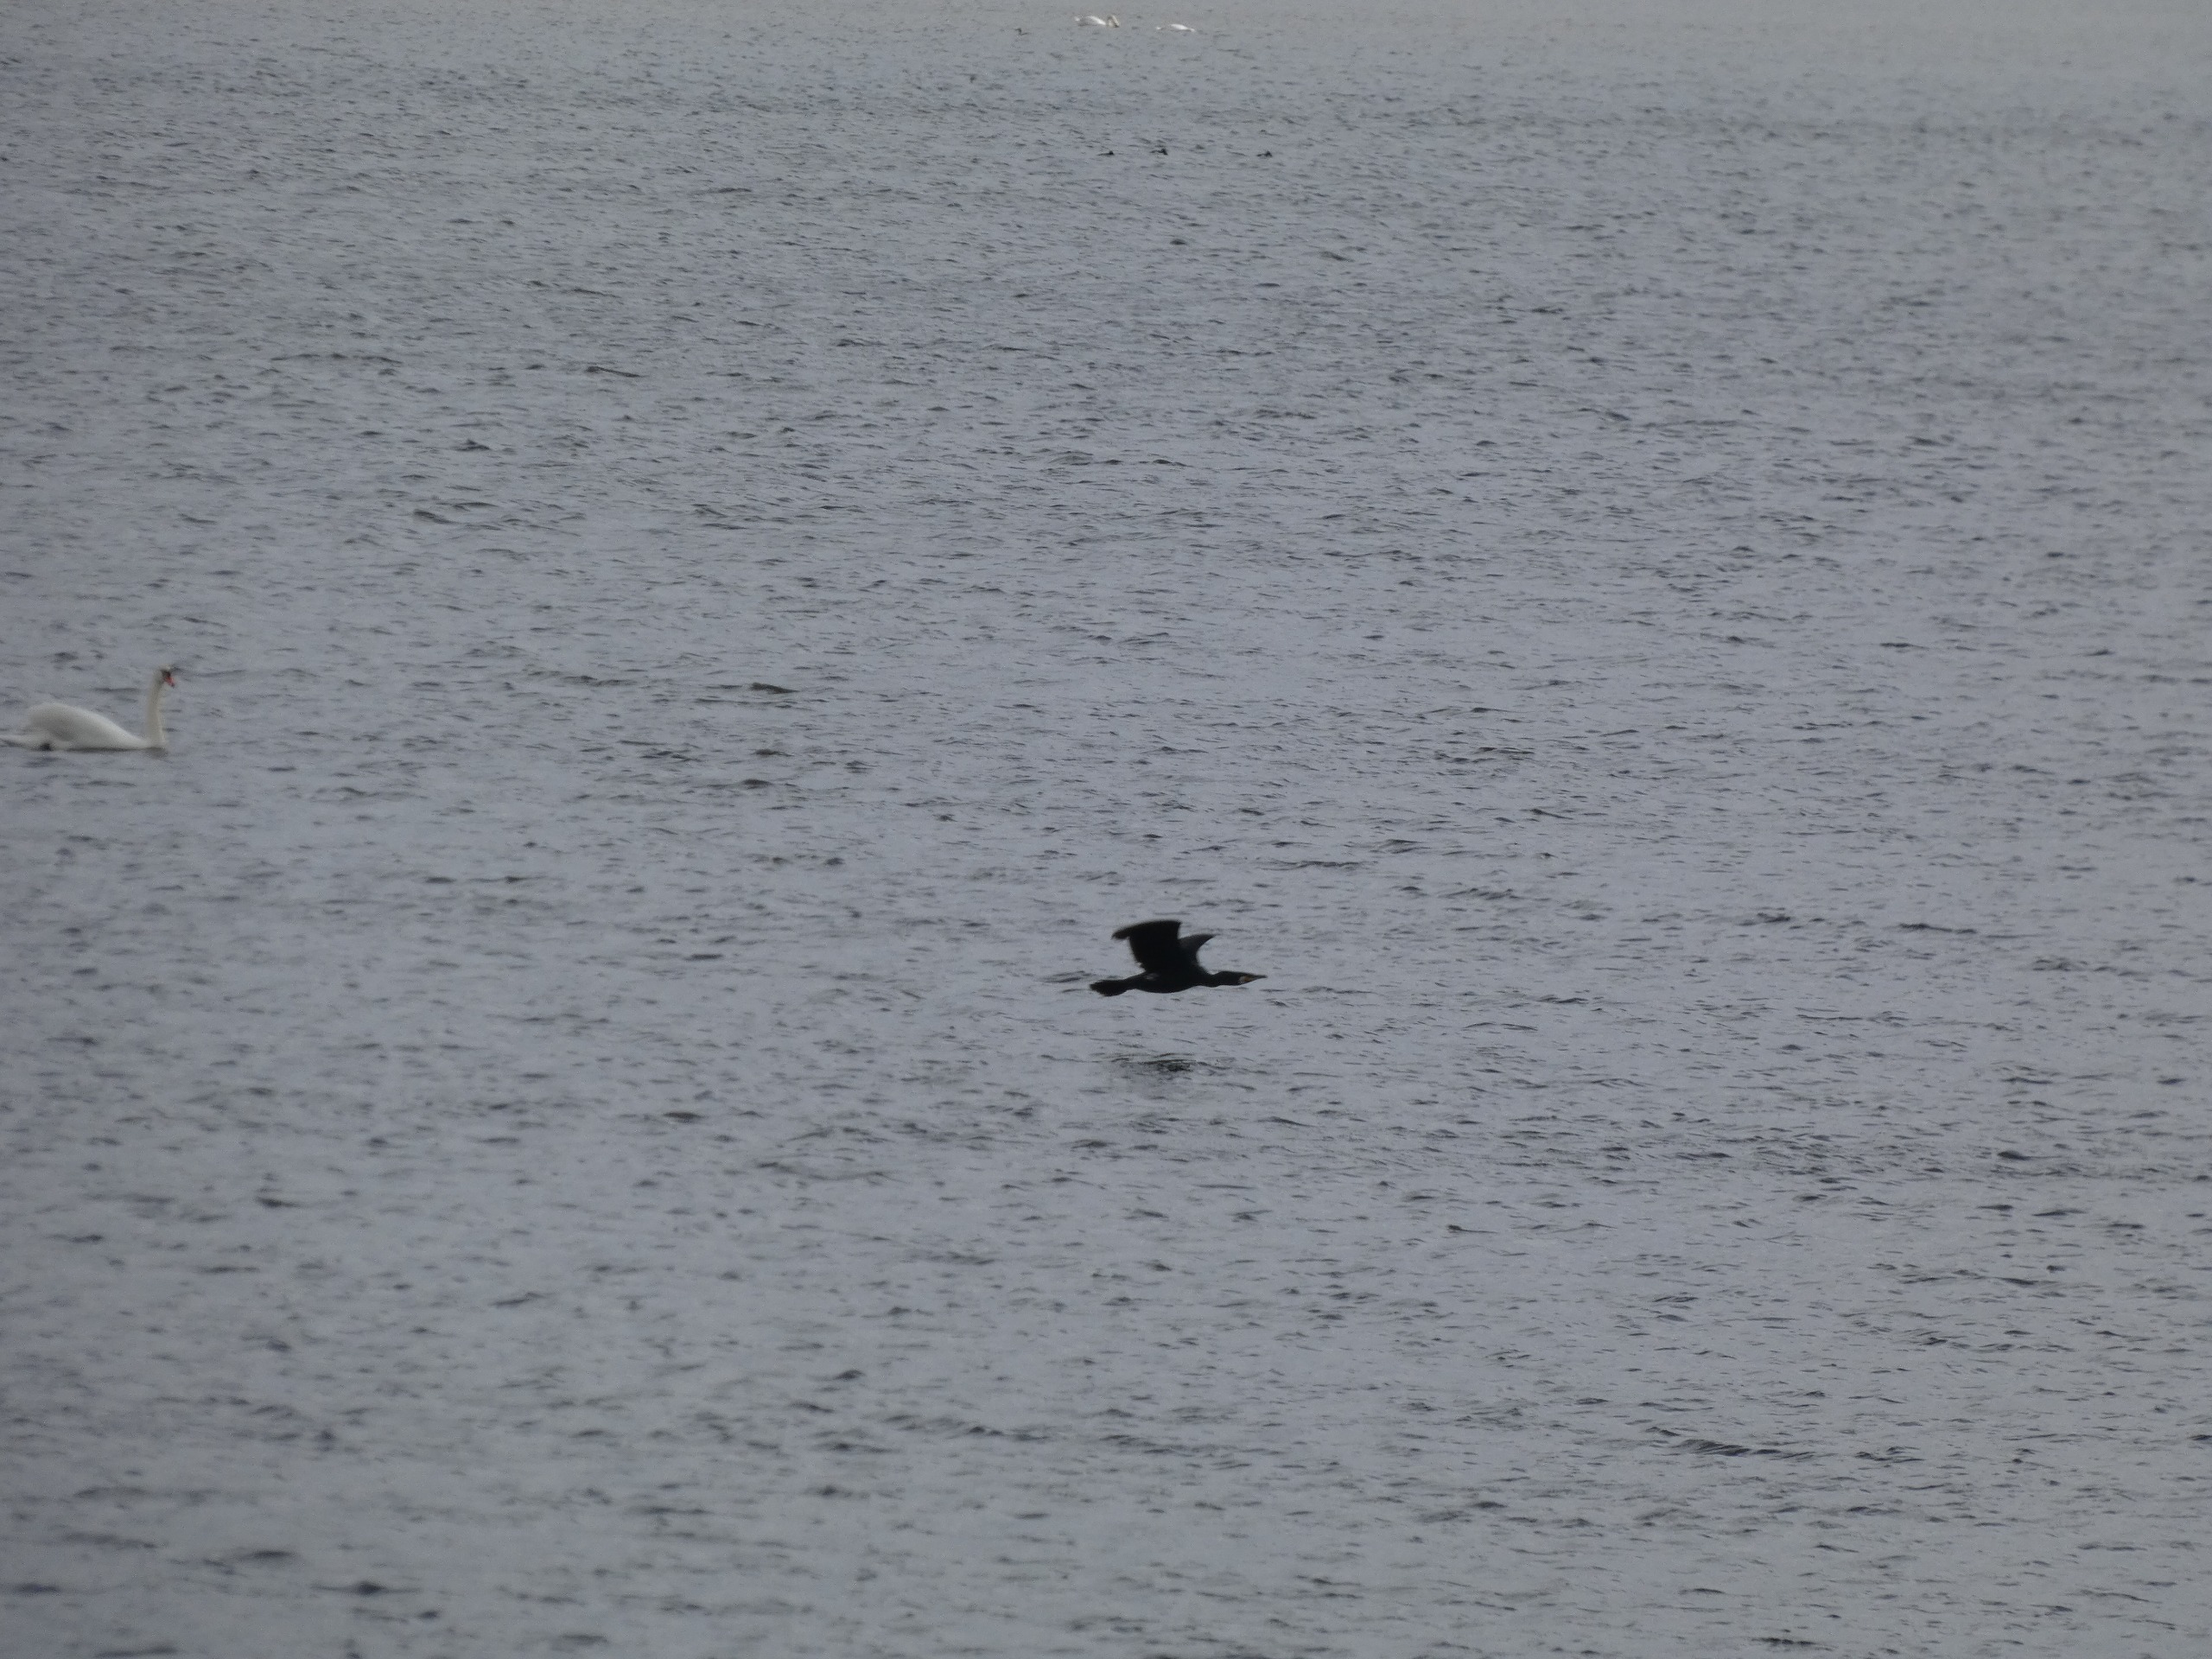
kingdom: Animalia
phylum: Chordata
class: Aves
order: Suliformes
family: Phalacrocoracidae
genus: Phalacrocorax
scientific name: Phalacrocorax carbo
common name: Skarv
